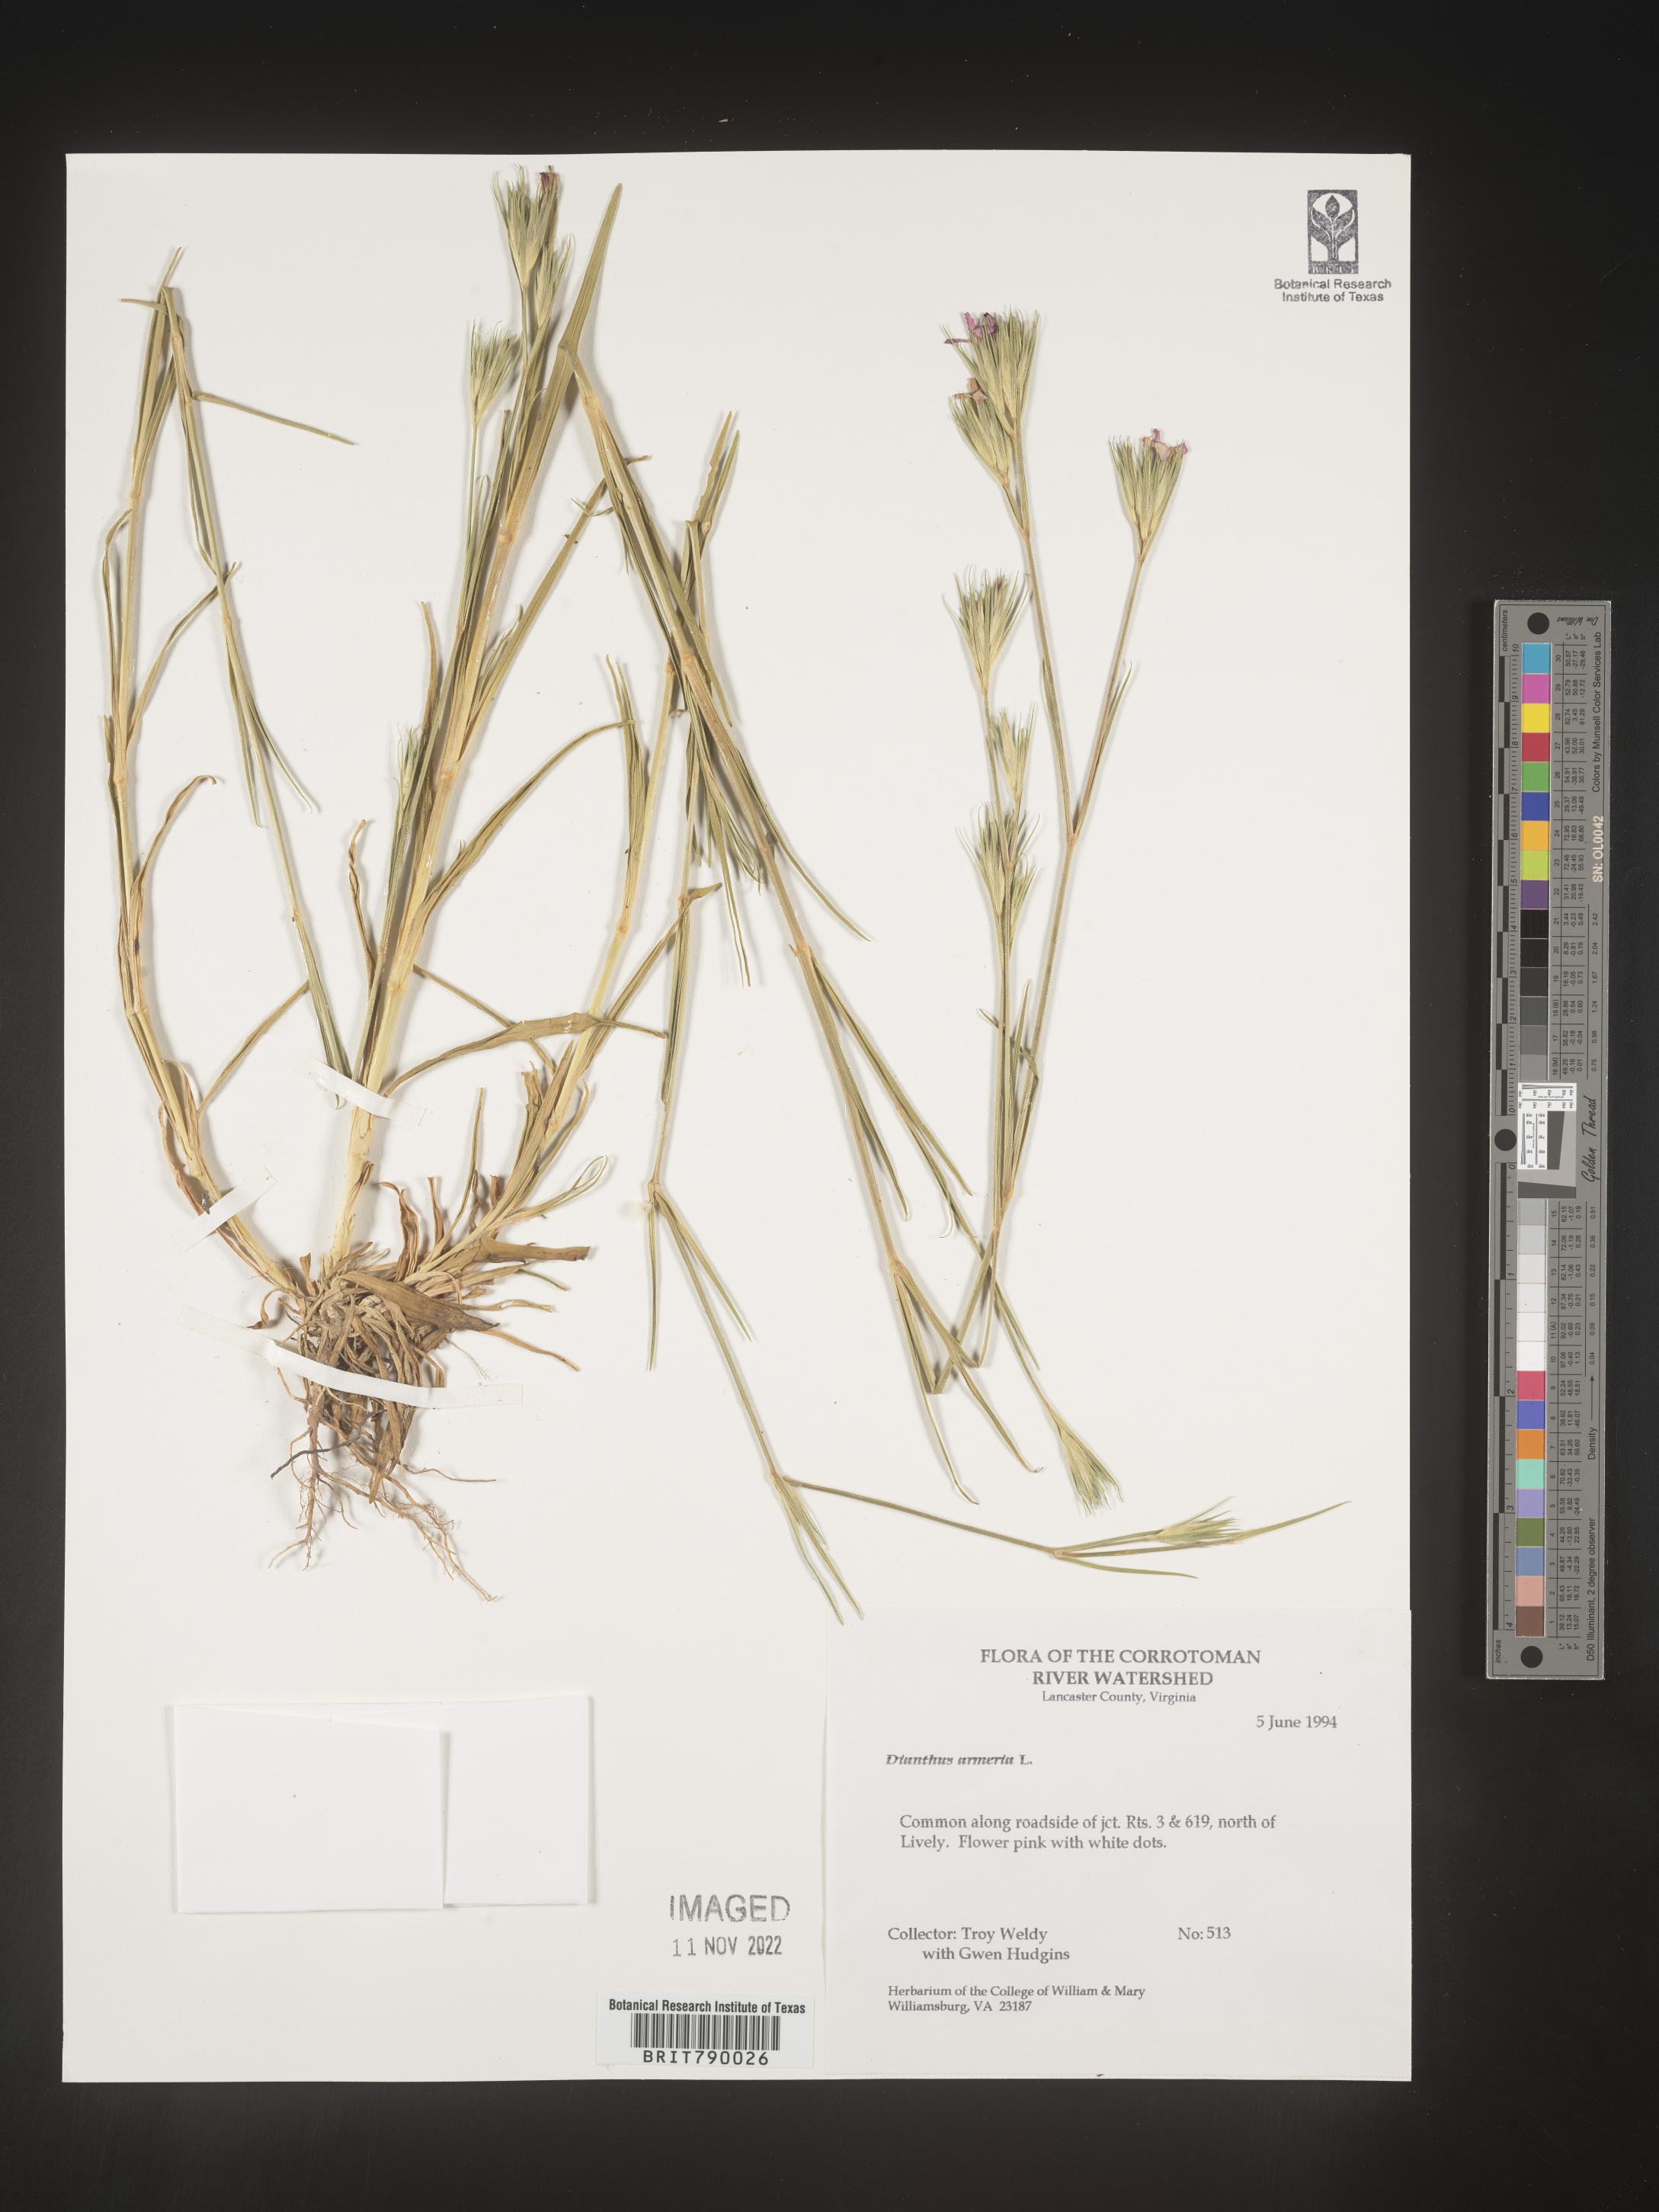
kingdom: Plantae
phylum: Tracheophyta
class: Magnoliopsida
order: Caryophyllales
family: Caryophyllaceae
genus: Dianthus
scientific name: Dianthus armeria
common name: Deptford pink
